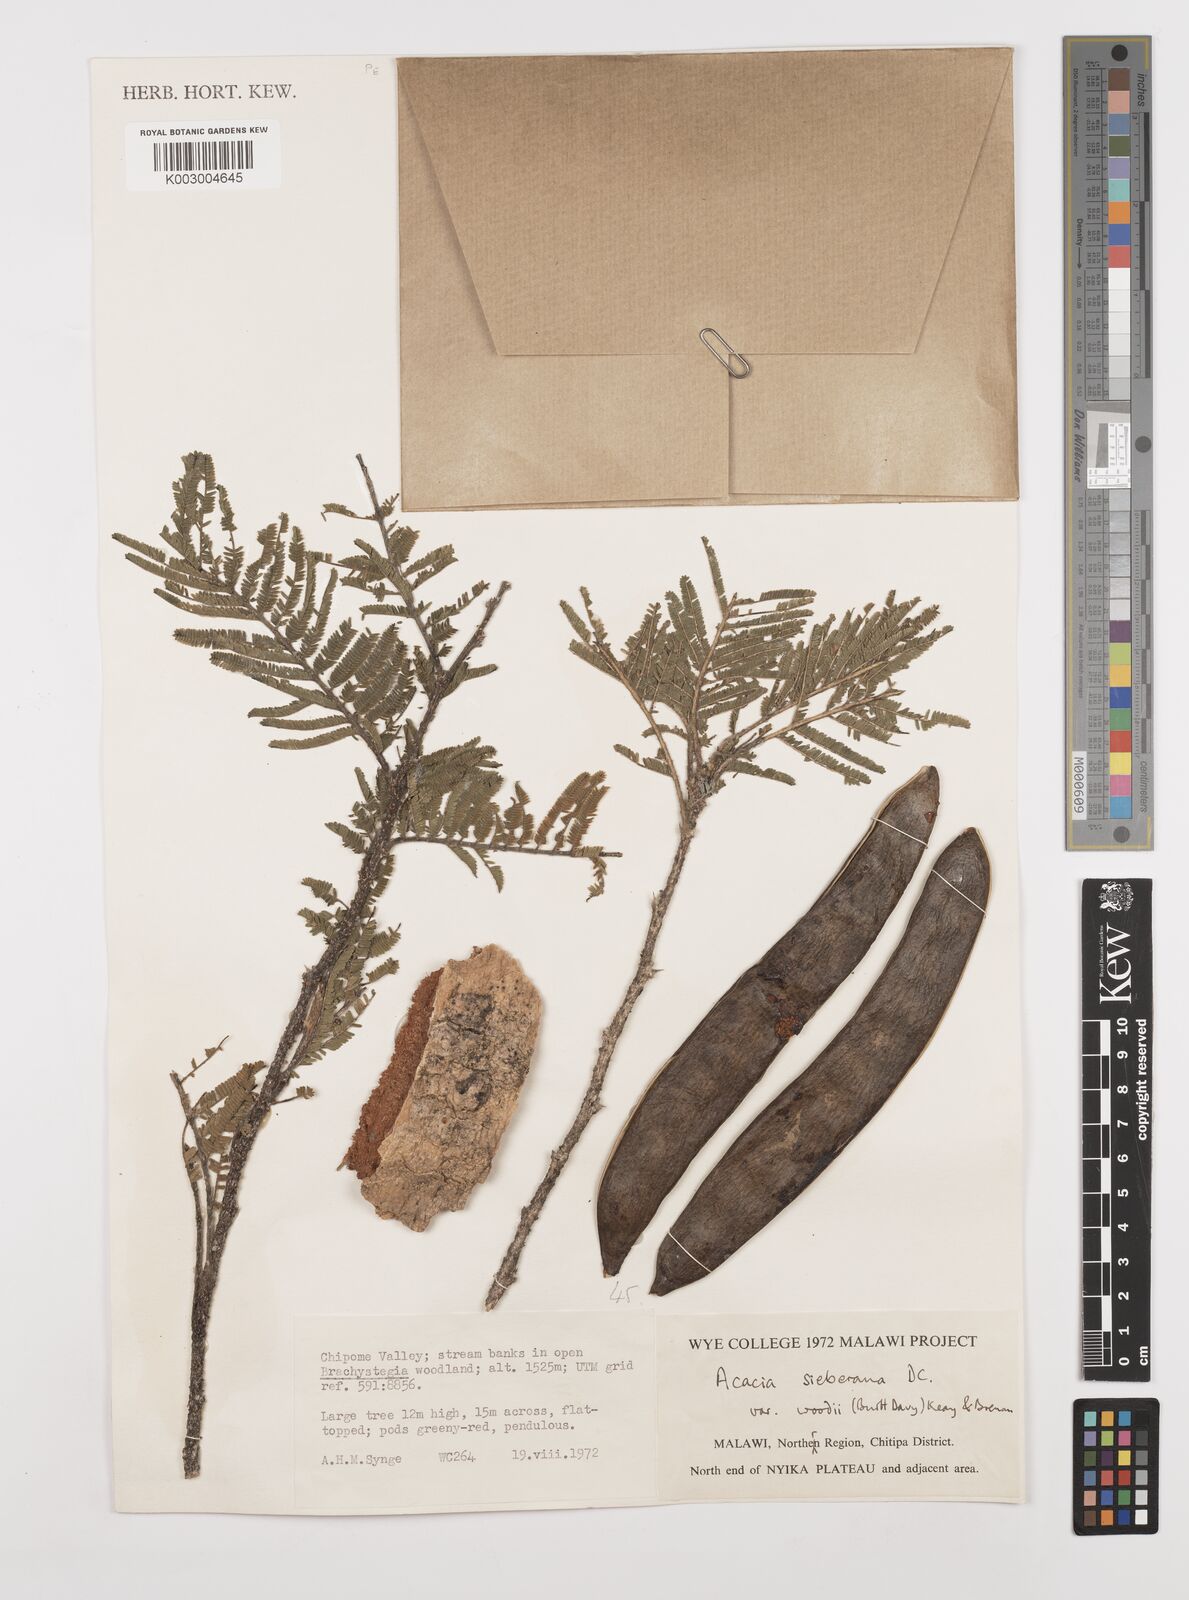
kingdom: Plantae
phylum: Tracheophyta
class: Magnoliopsida
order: Fabales
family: Fabaceae
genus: Vachellia
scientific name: Vachellia sieberiana
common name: Flat-topped thorn
